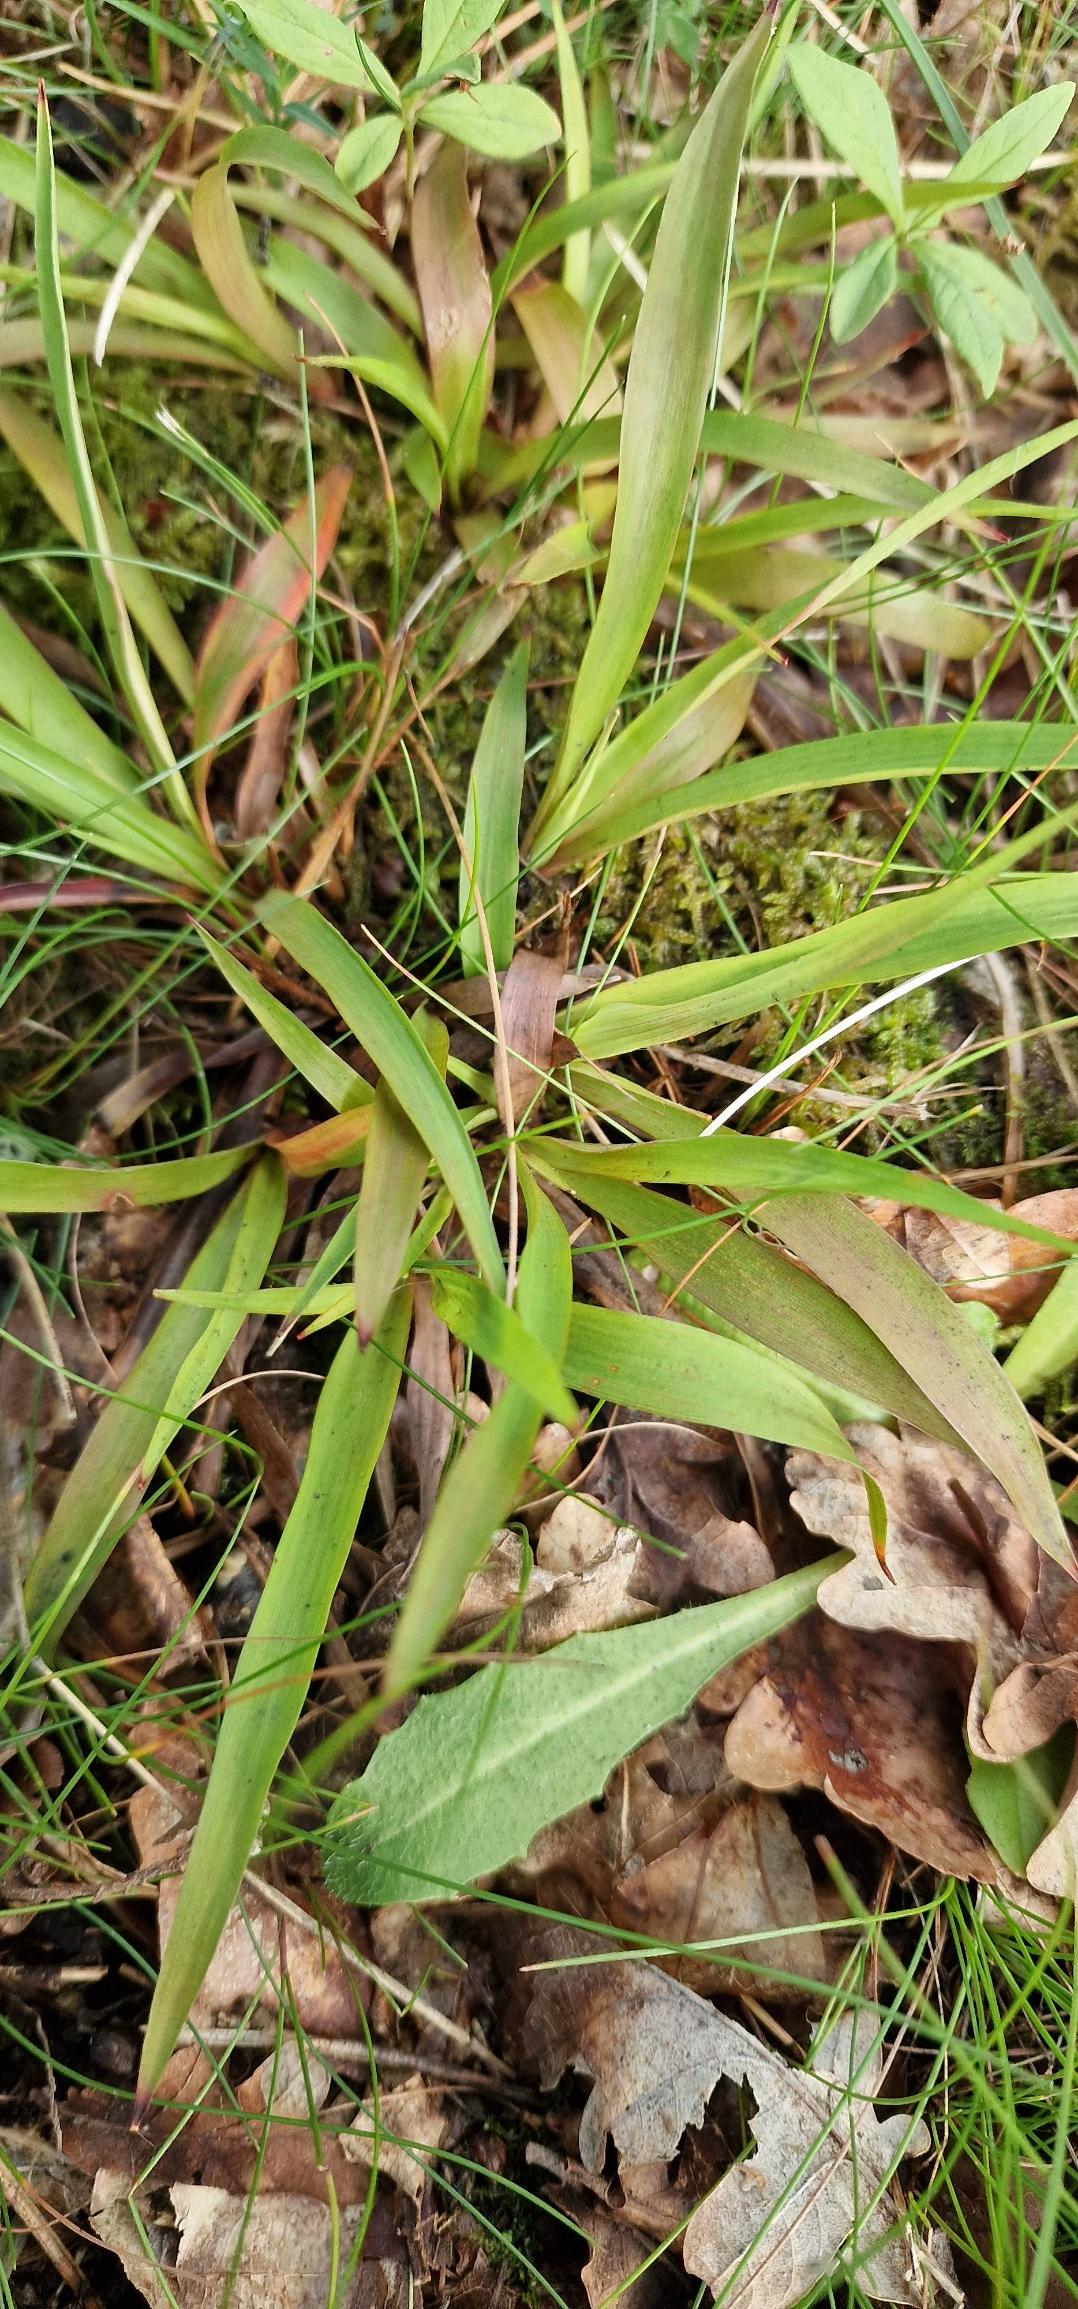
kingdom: Plantae
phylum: Tracheophyta
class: Liliopsida
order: Poales
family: Juncaceae
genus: Luzula
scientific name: Luzula pilosa
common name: Håret frytle
